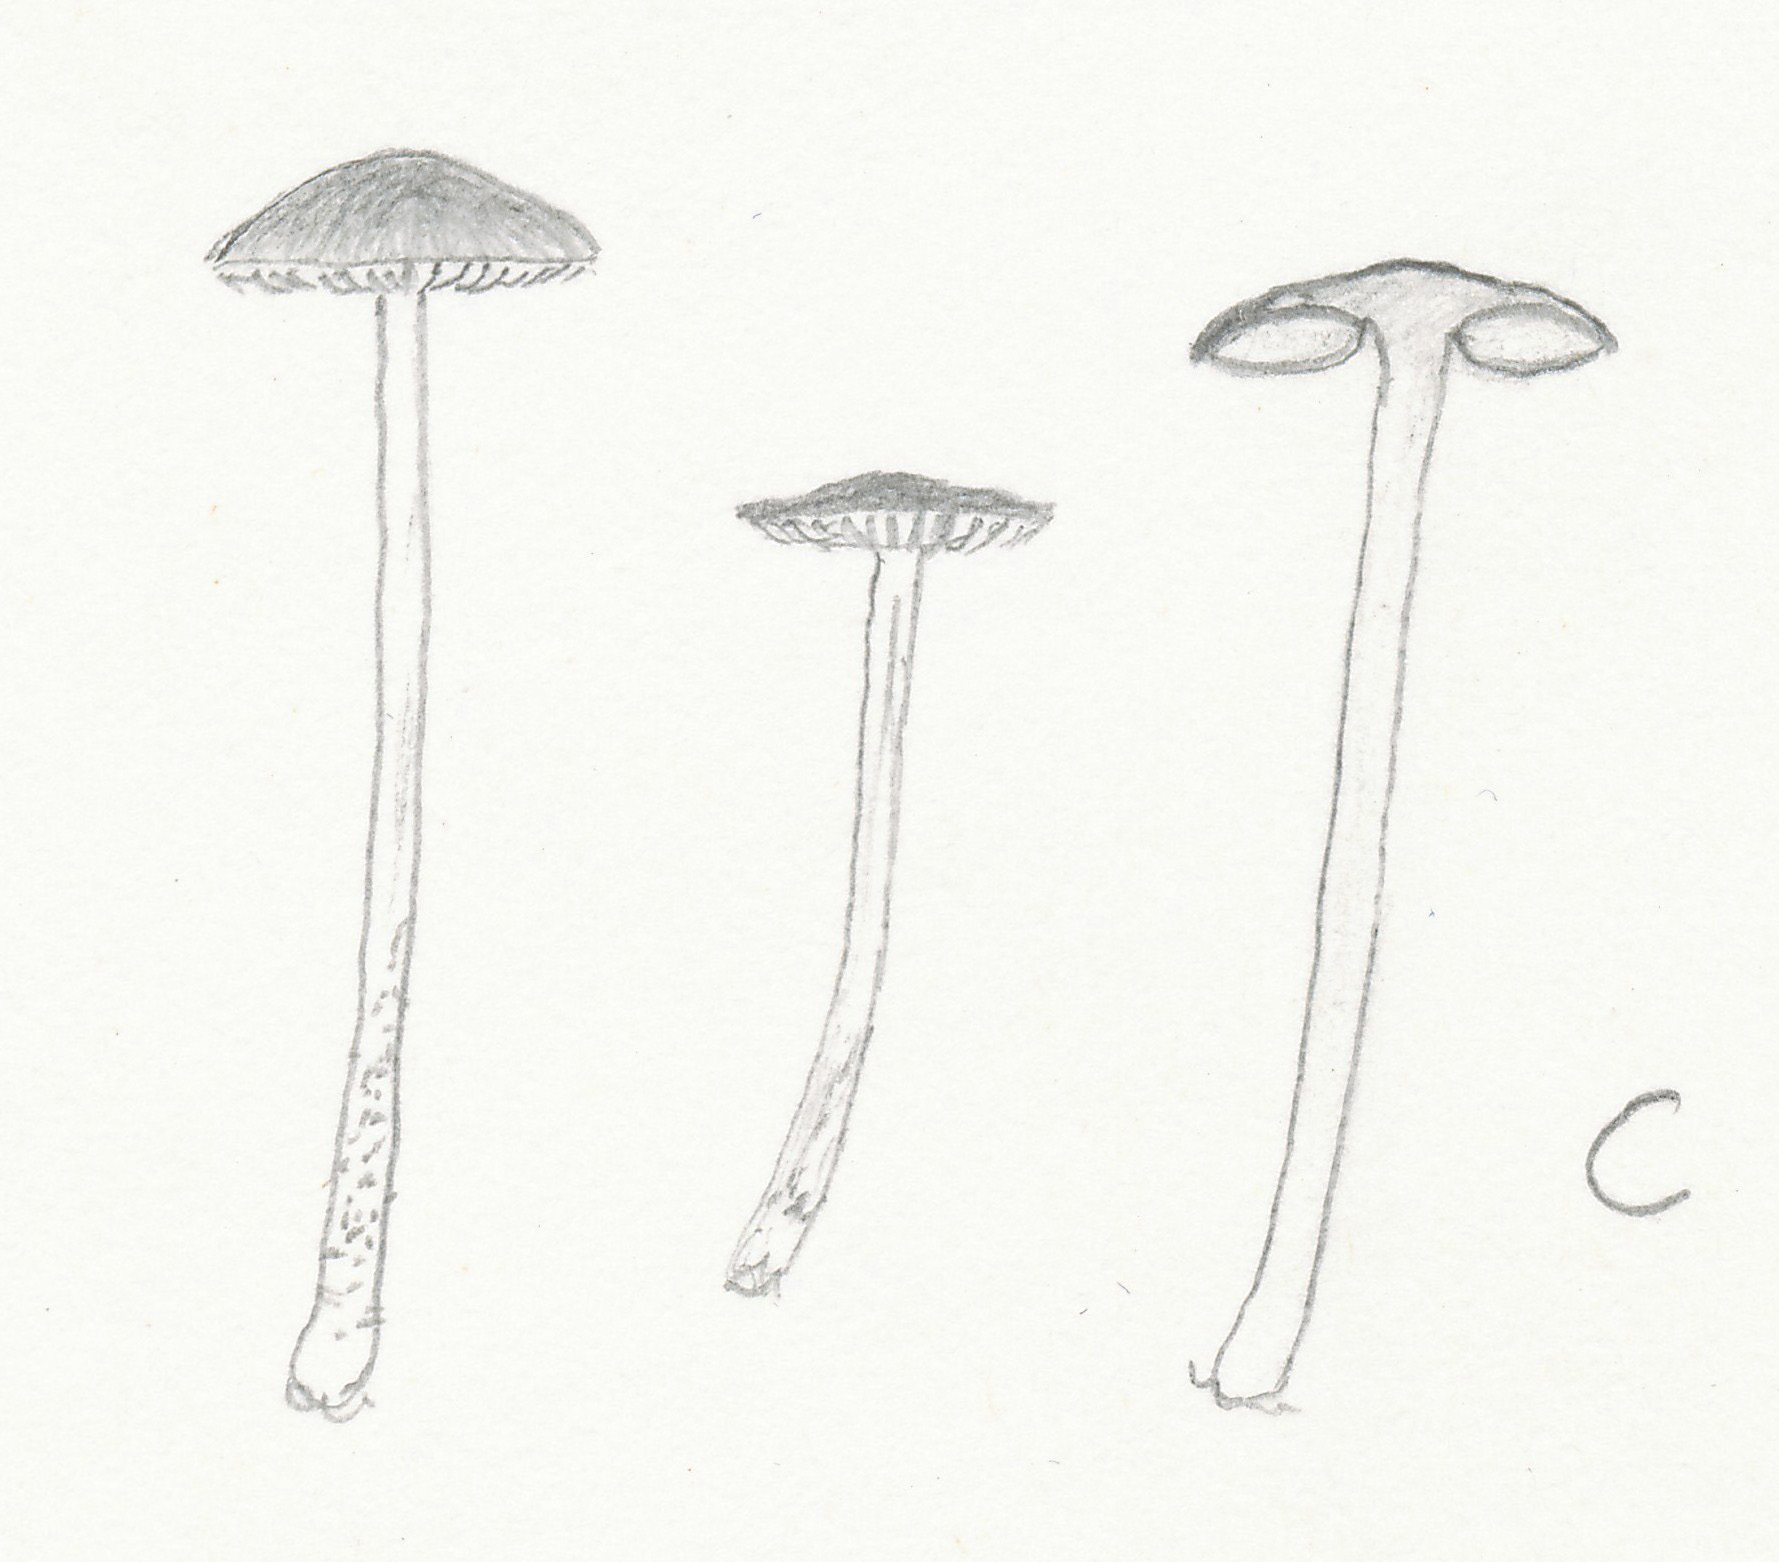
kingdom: Fungi
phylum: Basidiomycota
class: Agaricomycetes
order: Agaricales
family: Pluteaceae
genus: Pluteus
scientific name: Pluteus podospileus
